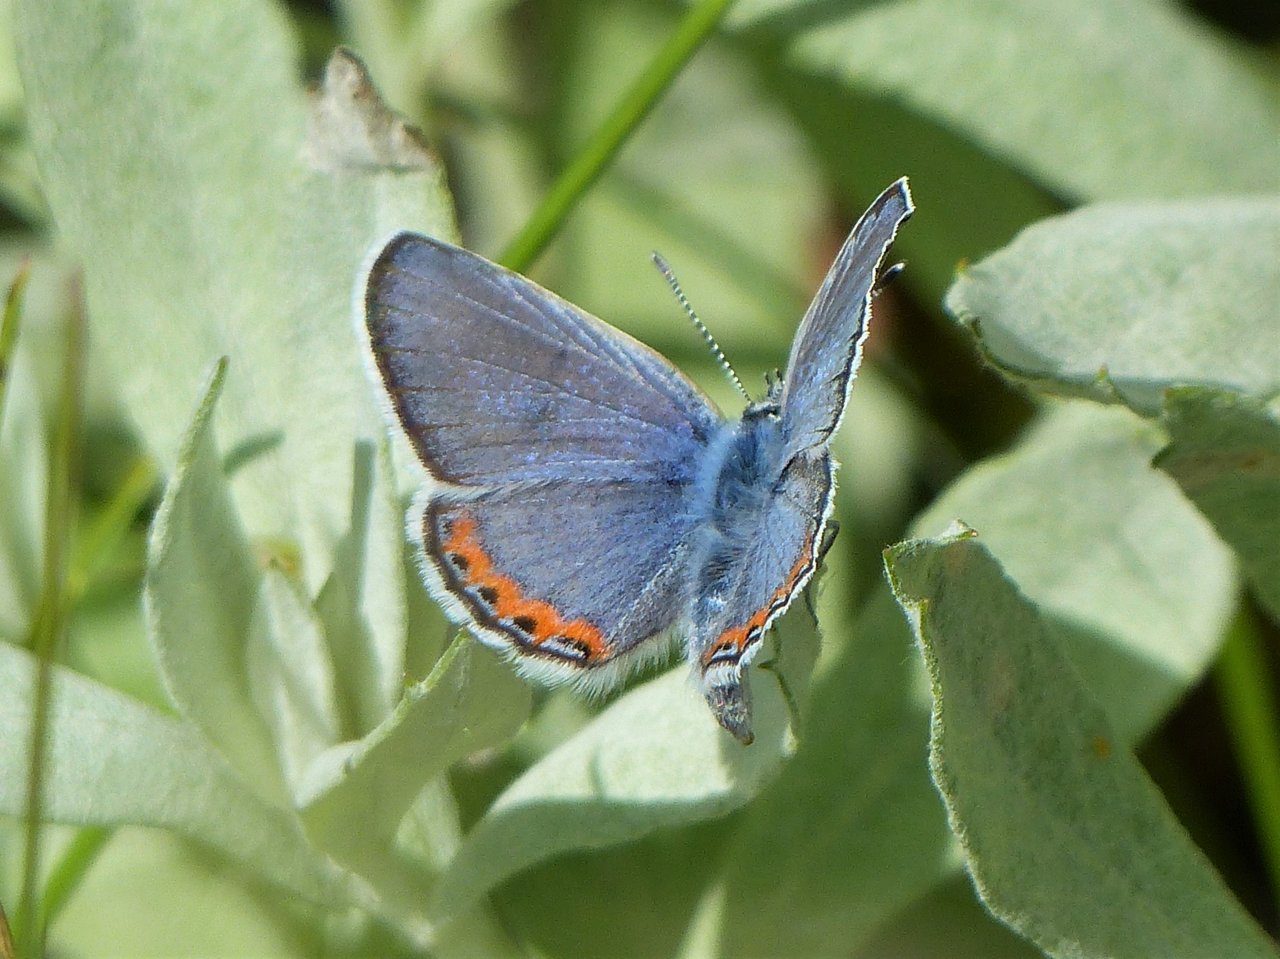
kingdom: Animalia
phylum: Arthropoda
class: Insecta
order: Lepidoptera
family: Lycaenidae
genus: Plebejus
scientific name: Plebejus lupini
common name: Lupine Blue
